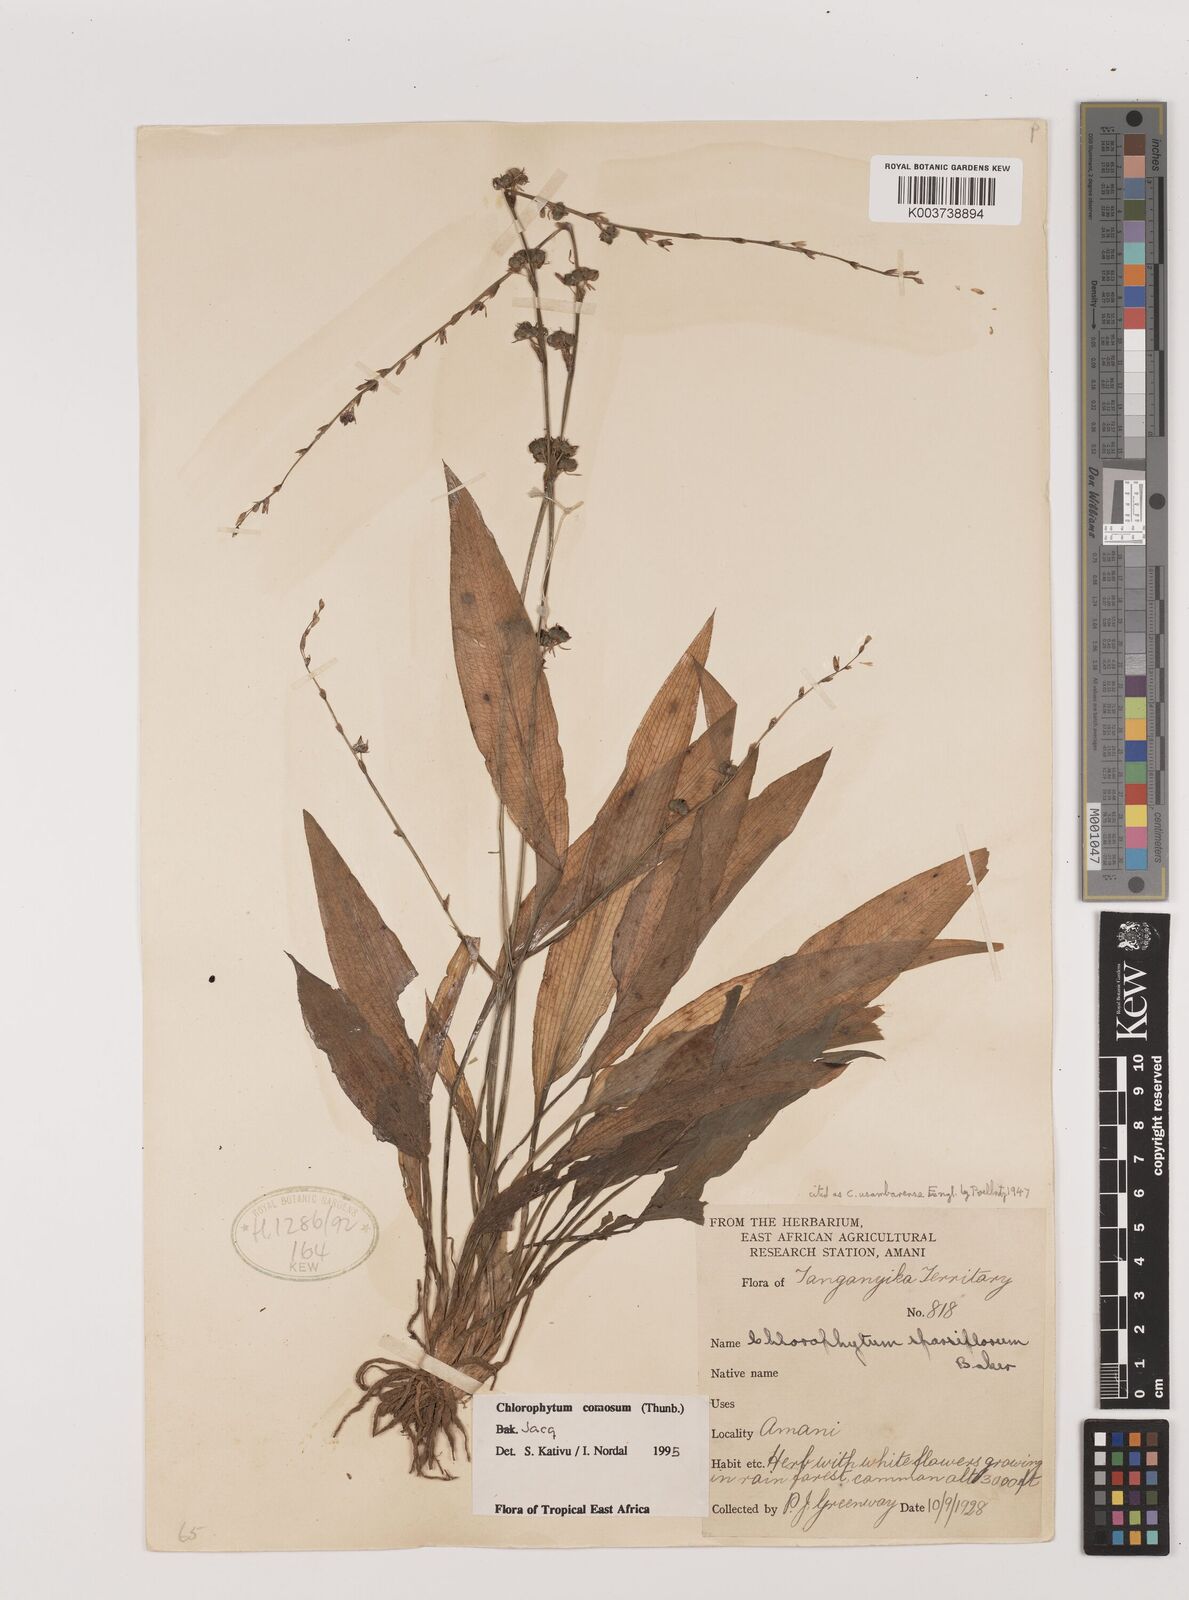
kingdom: Plantae
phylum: Tracheophyta
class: Liliopsida
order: Asparagales
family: Asparagaceae
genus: Chlorophytum
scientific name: Chlorophytum comosum
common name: Spider plant
